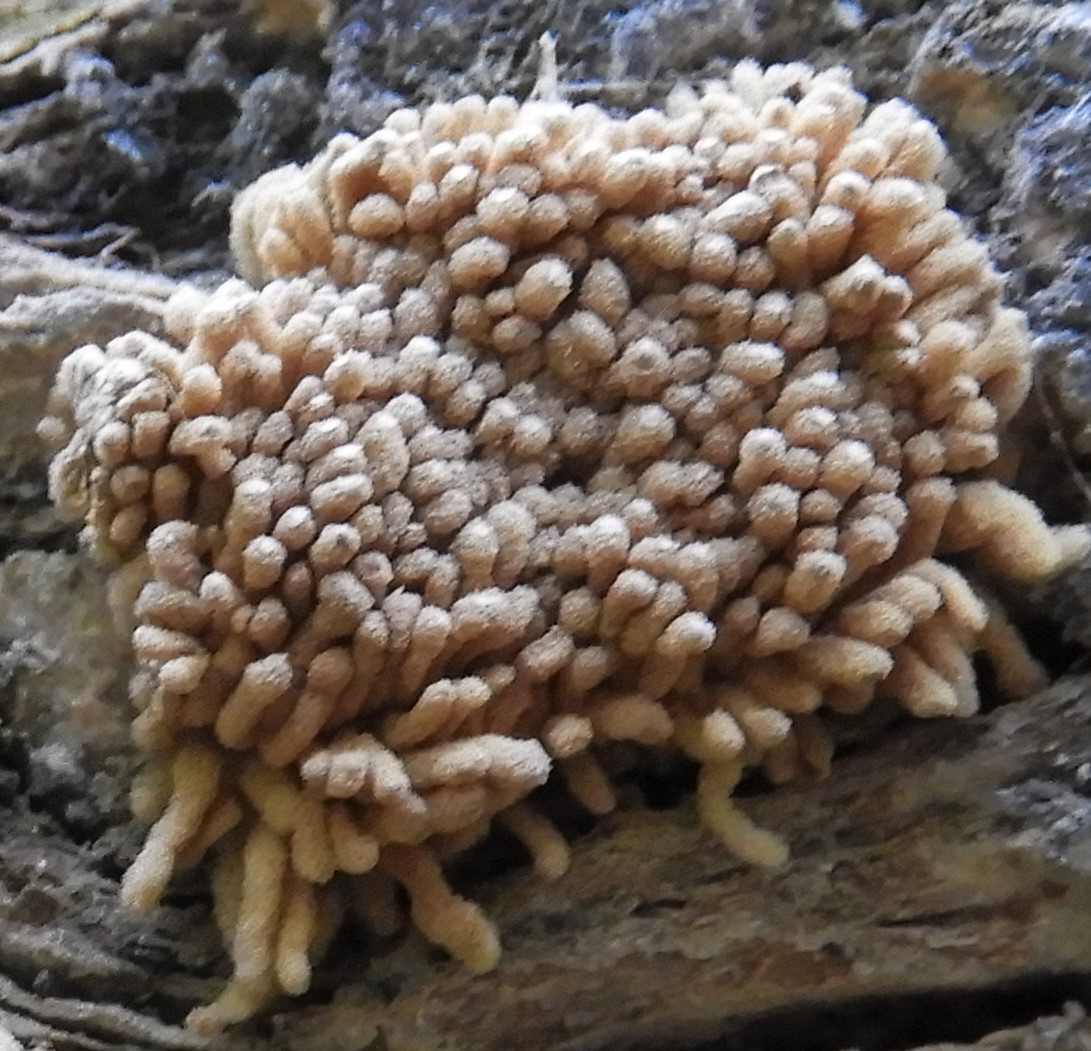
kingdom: Protozoa
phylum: Mycetozoa
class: Myxomycetes
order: Trichiales
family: Arcyriaceae
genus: Arcyria
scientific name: Arcyria obvelata
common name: okkergul skålsvøb
